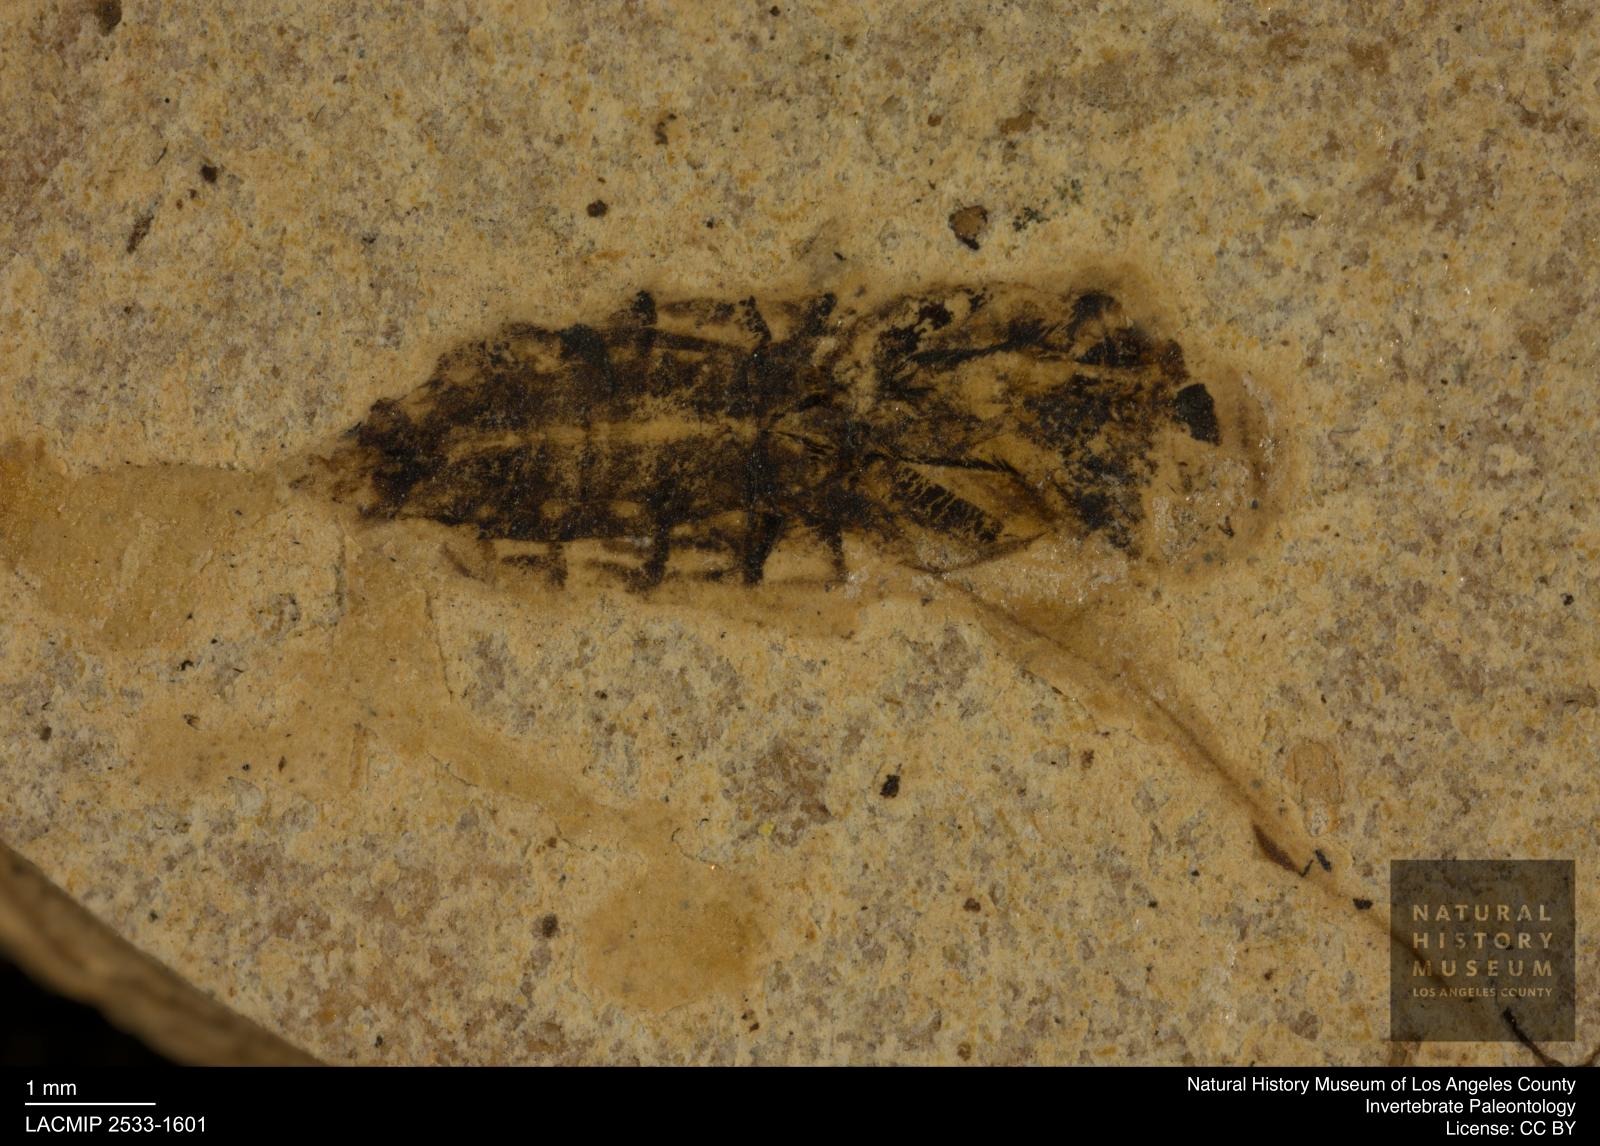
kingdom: Animalia
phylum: Arthropoda
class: Insecta
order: Hemiptera
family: Notonectidae
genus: Notonecta
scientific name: Notonecta
